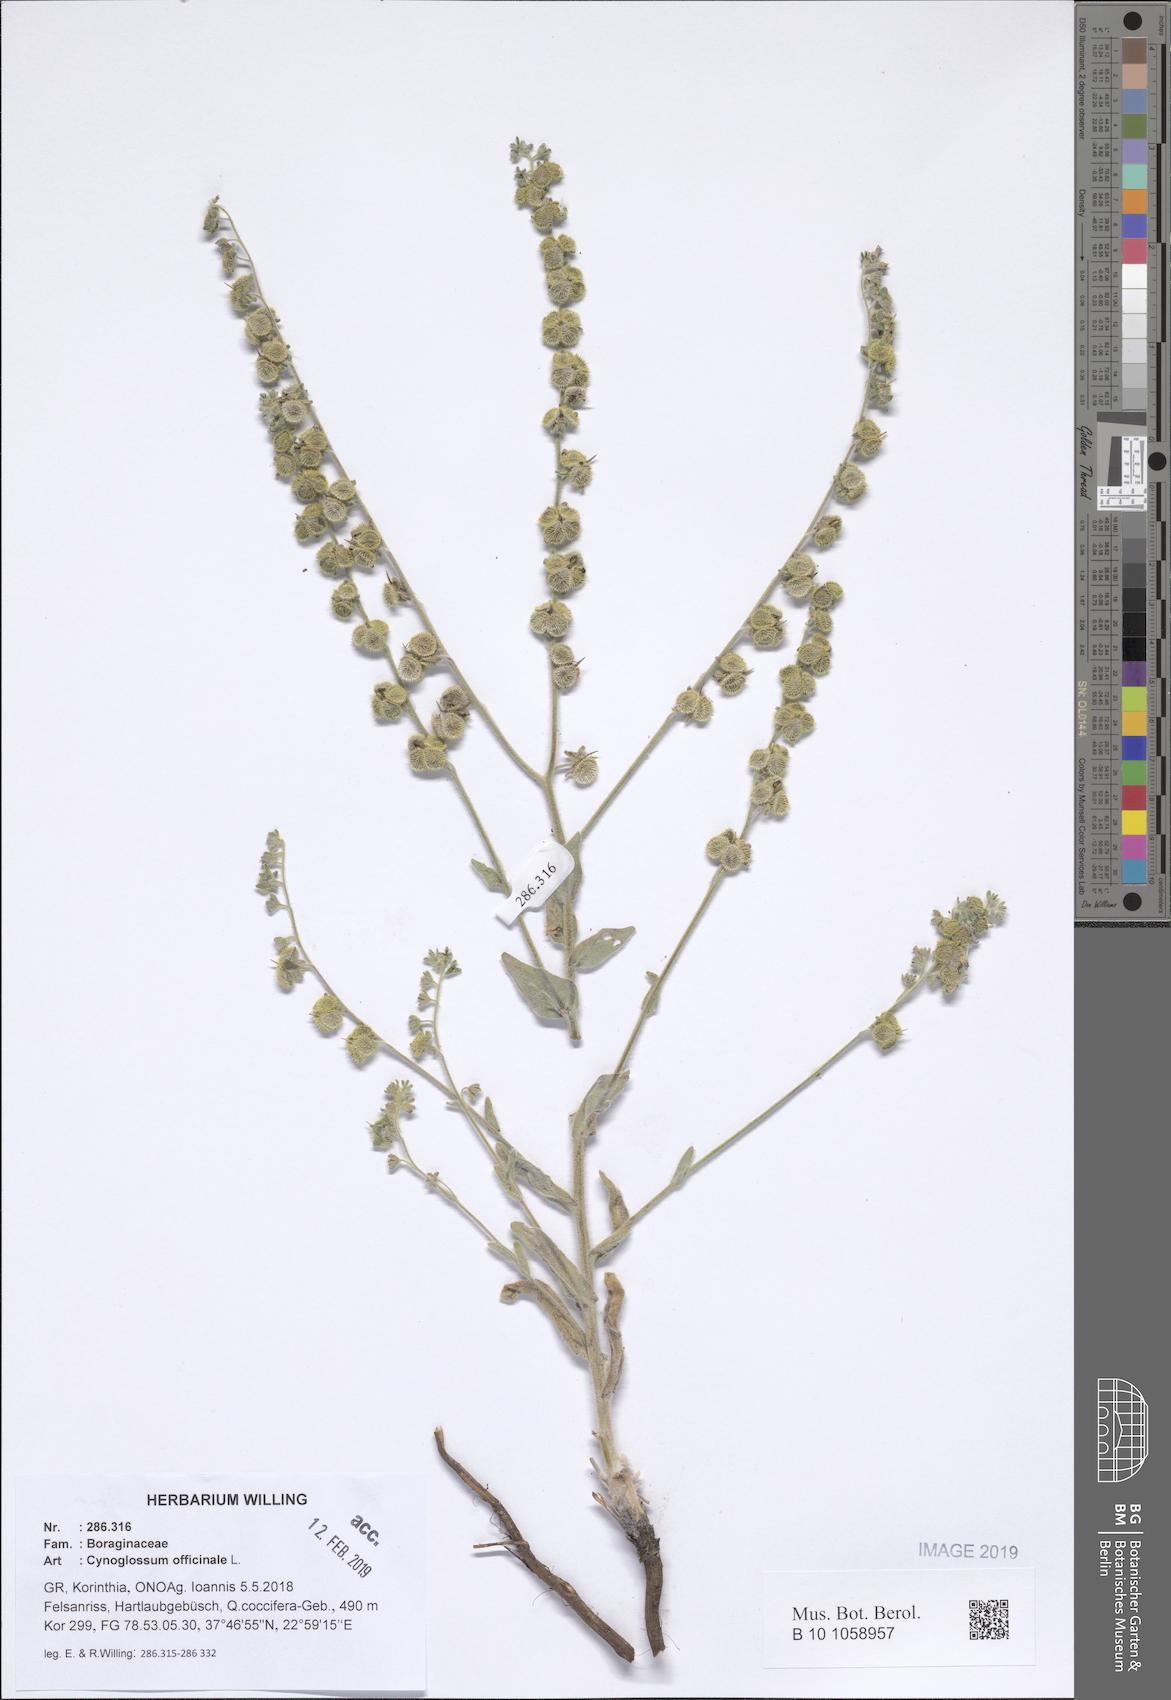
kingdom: Plantae
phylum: Tracheophyta
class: Magnoliopsida
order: Boraginales
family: Boraginaceae
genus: Rindera
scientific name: Rindera columnae
